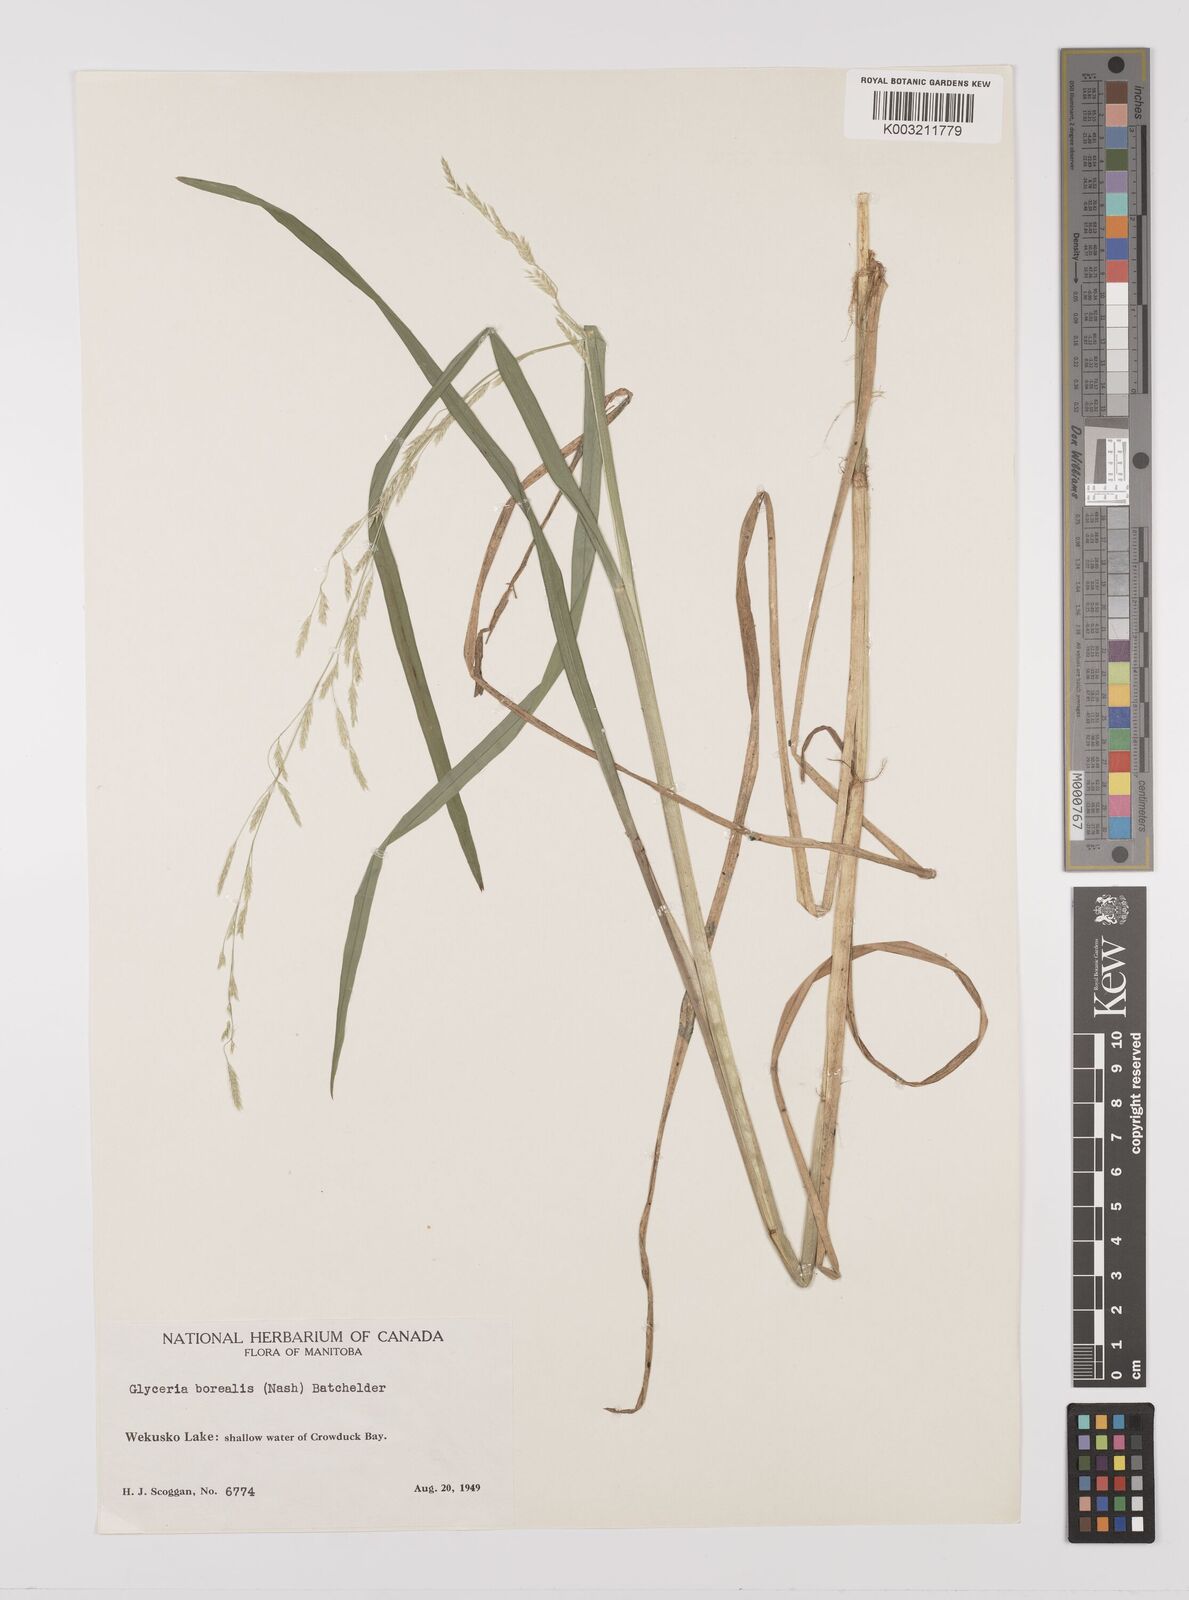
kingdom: Plantae
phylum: Tracheophyta
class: Liliopsida
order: Poales
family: Poaceae
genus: Glyceria
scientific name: Glyceria borealis
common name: Boreal glyceria
